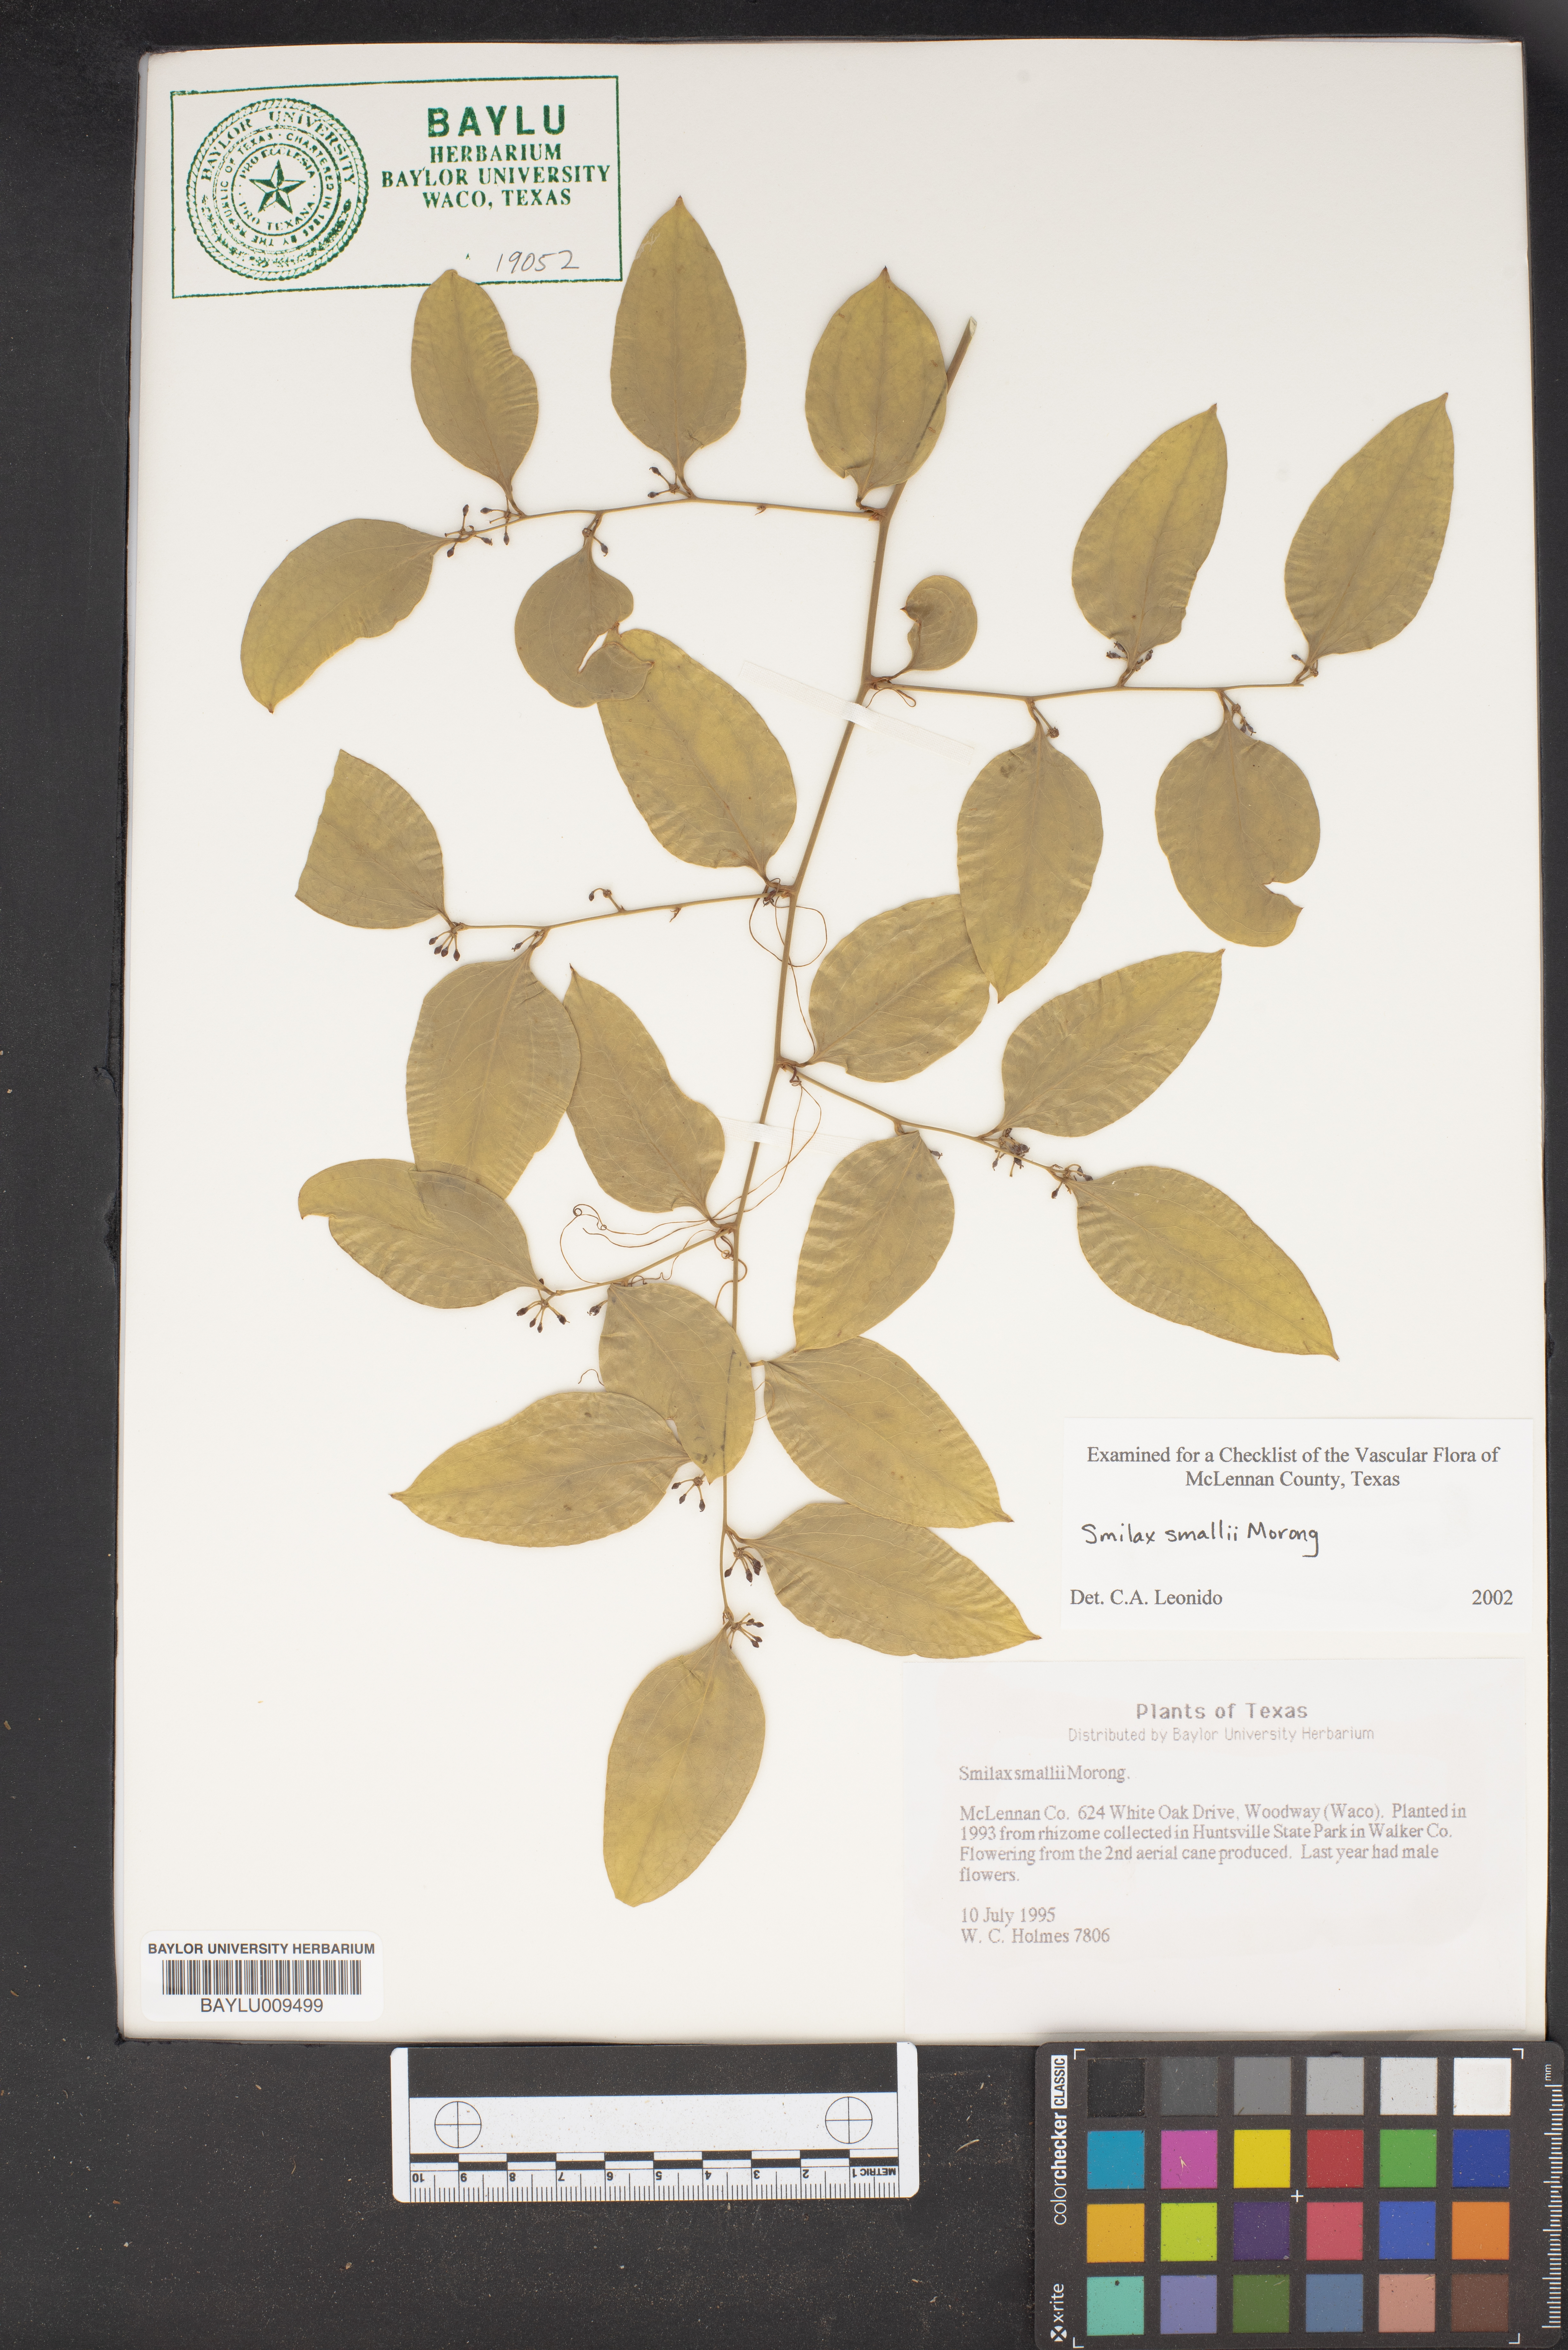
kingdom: Plantae
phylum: Tracheophyta
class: Liliopsida
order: Liliales
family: Smilacaceae
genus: Smilax
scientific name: Smilax maritima
